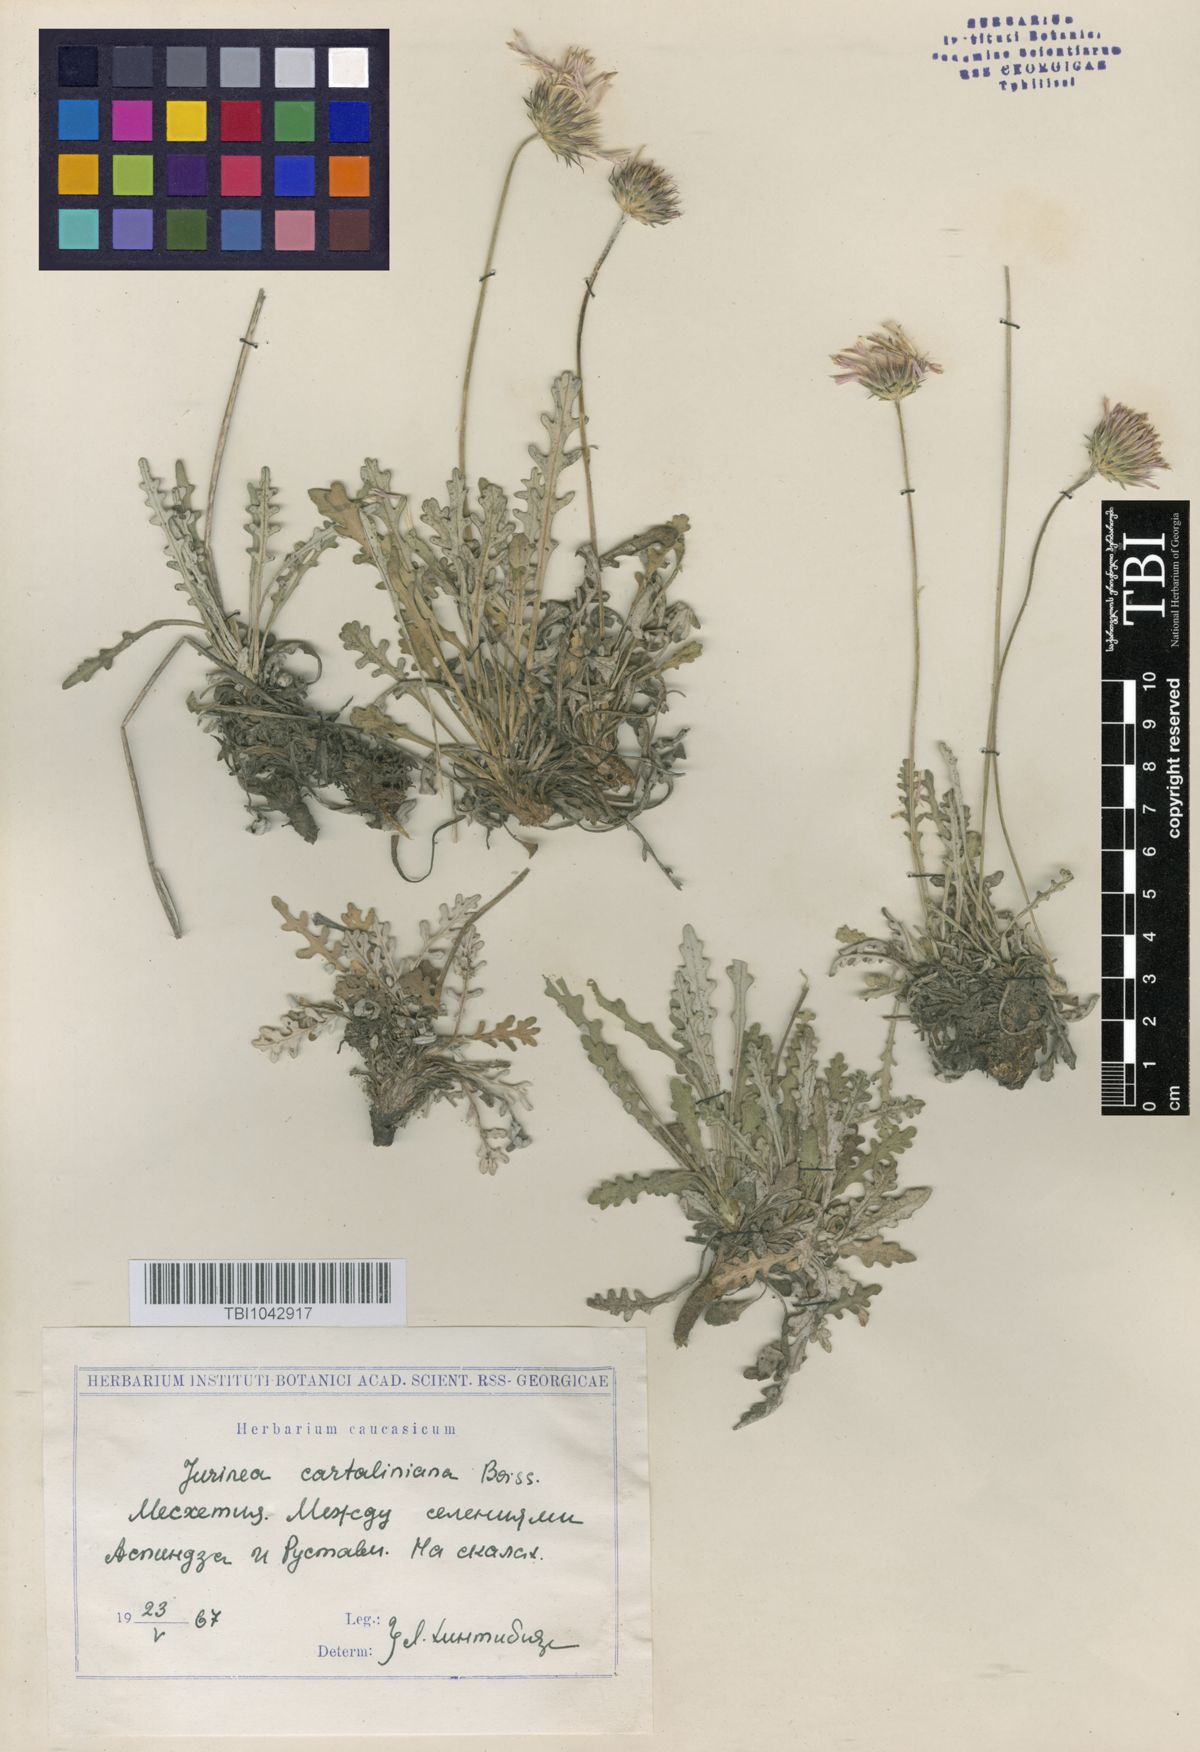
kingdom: Plantae
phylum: Tracheophyta
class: Magnoliopsida
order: Asterales
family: Asteraceae
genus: Jurinea
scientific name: Jurinea cartaliniana
